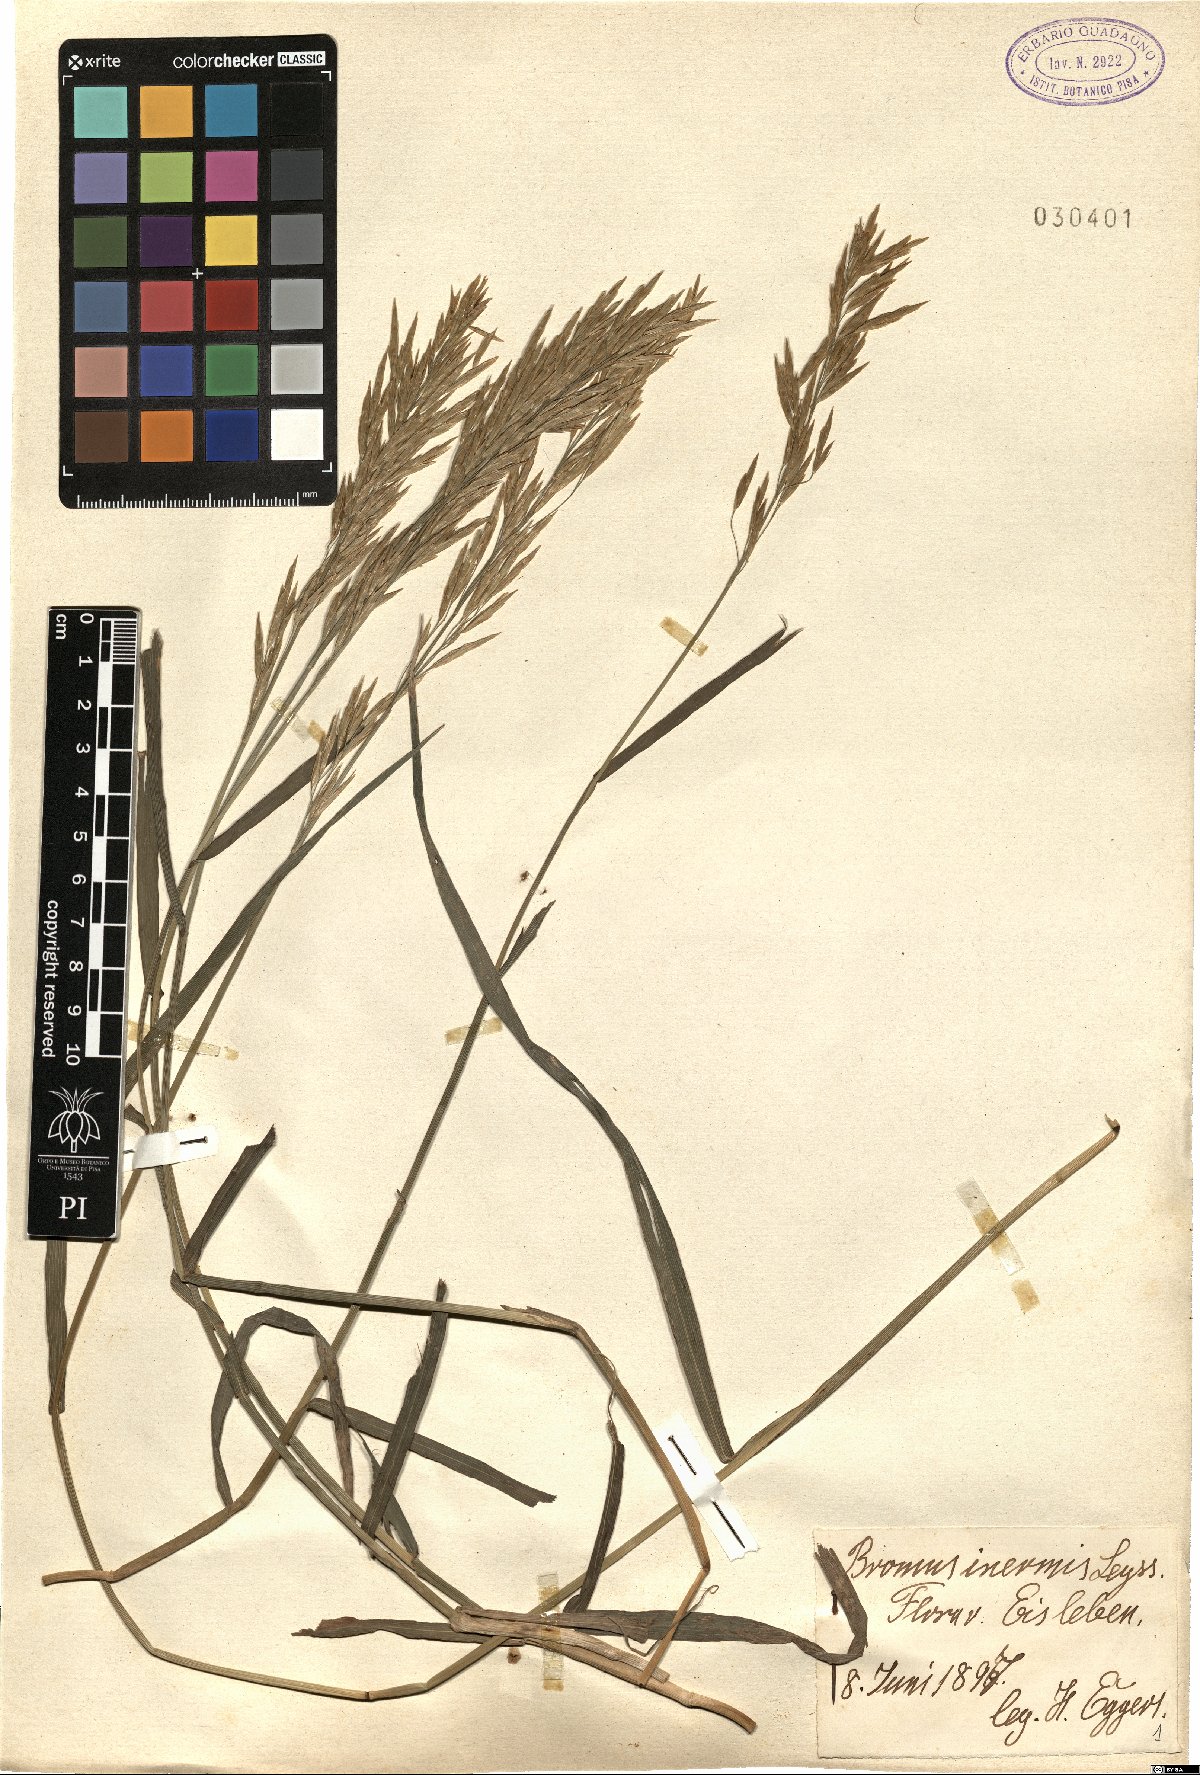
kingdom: Plantae
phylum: Tracheophyta
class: Liliopsida
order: Poales
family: Poaceae
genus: Bromus
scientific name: Bromus inermis
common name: Smooth brome
